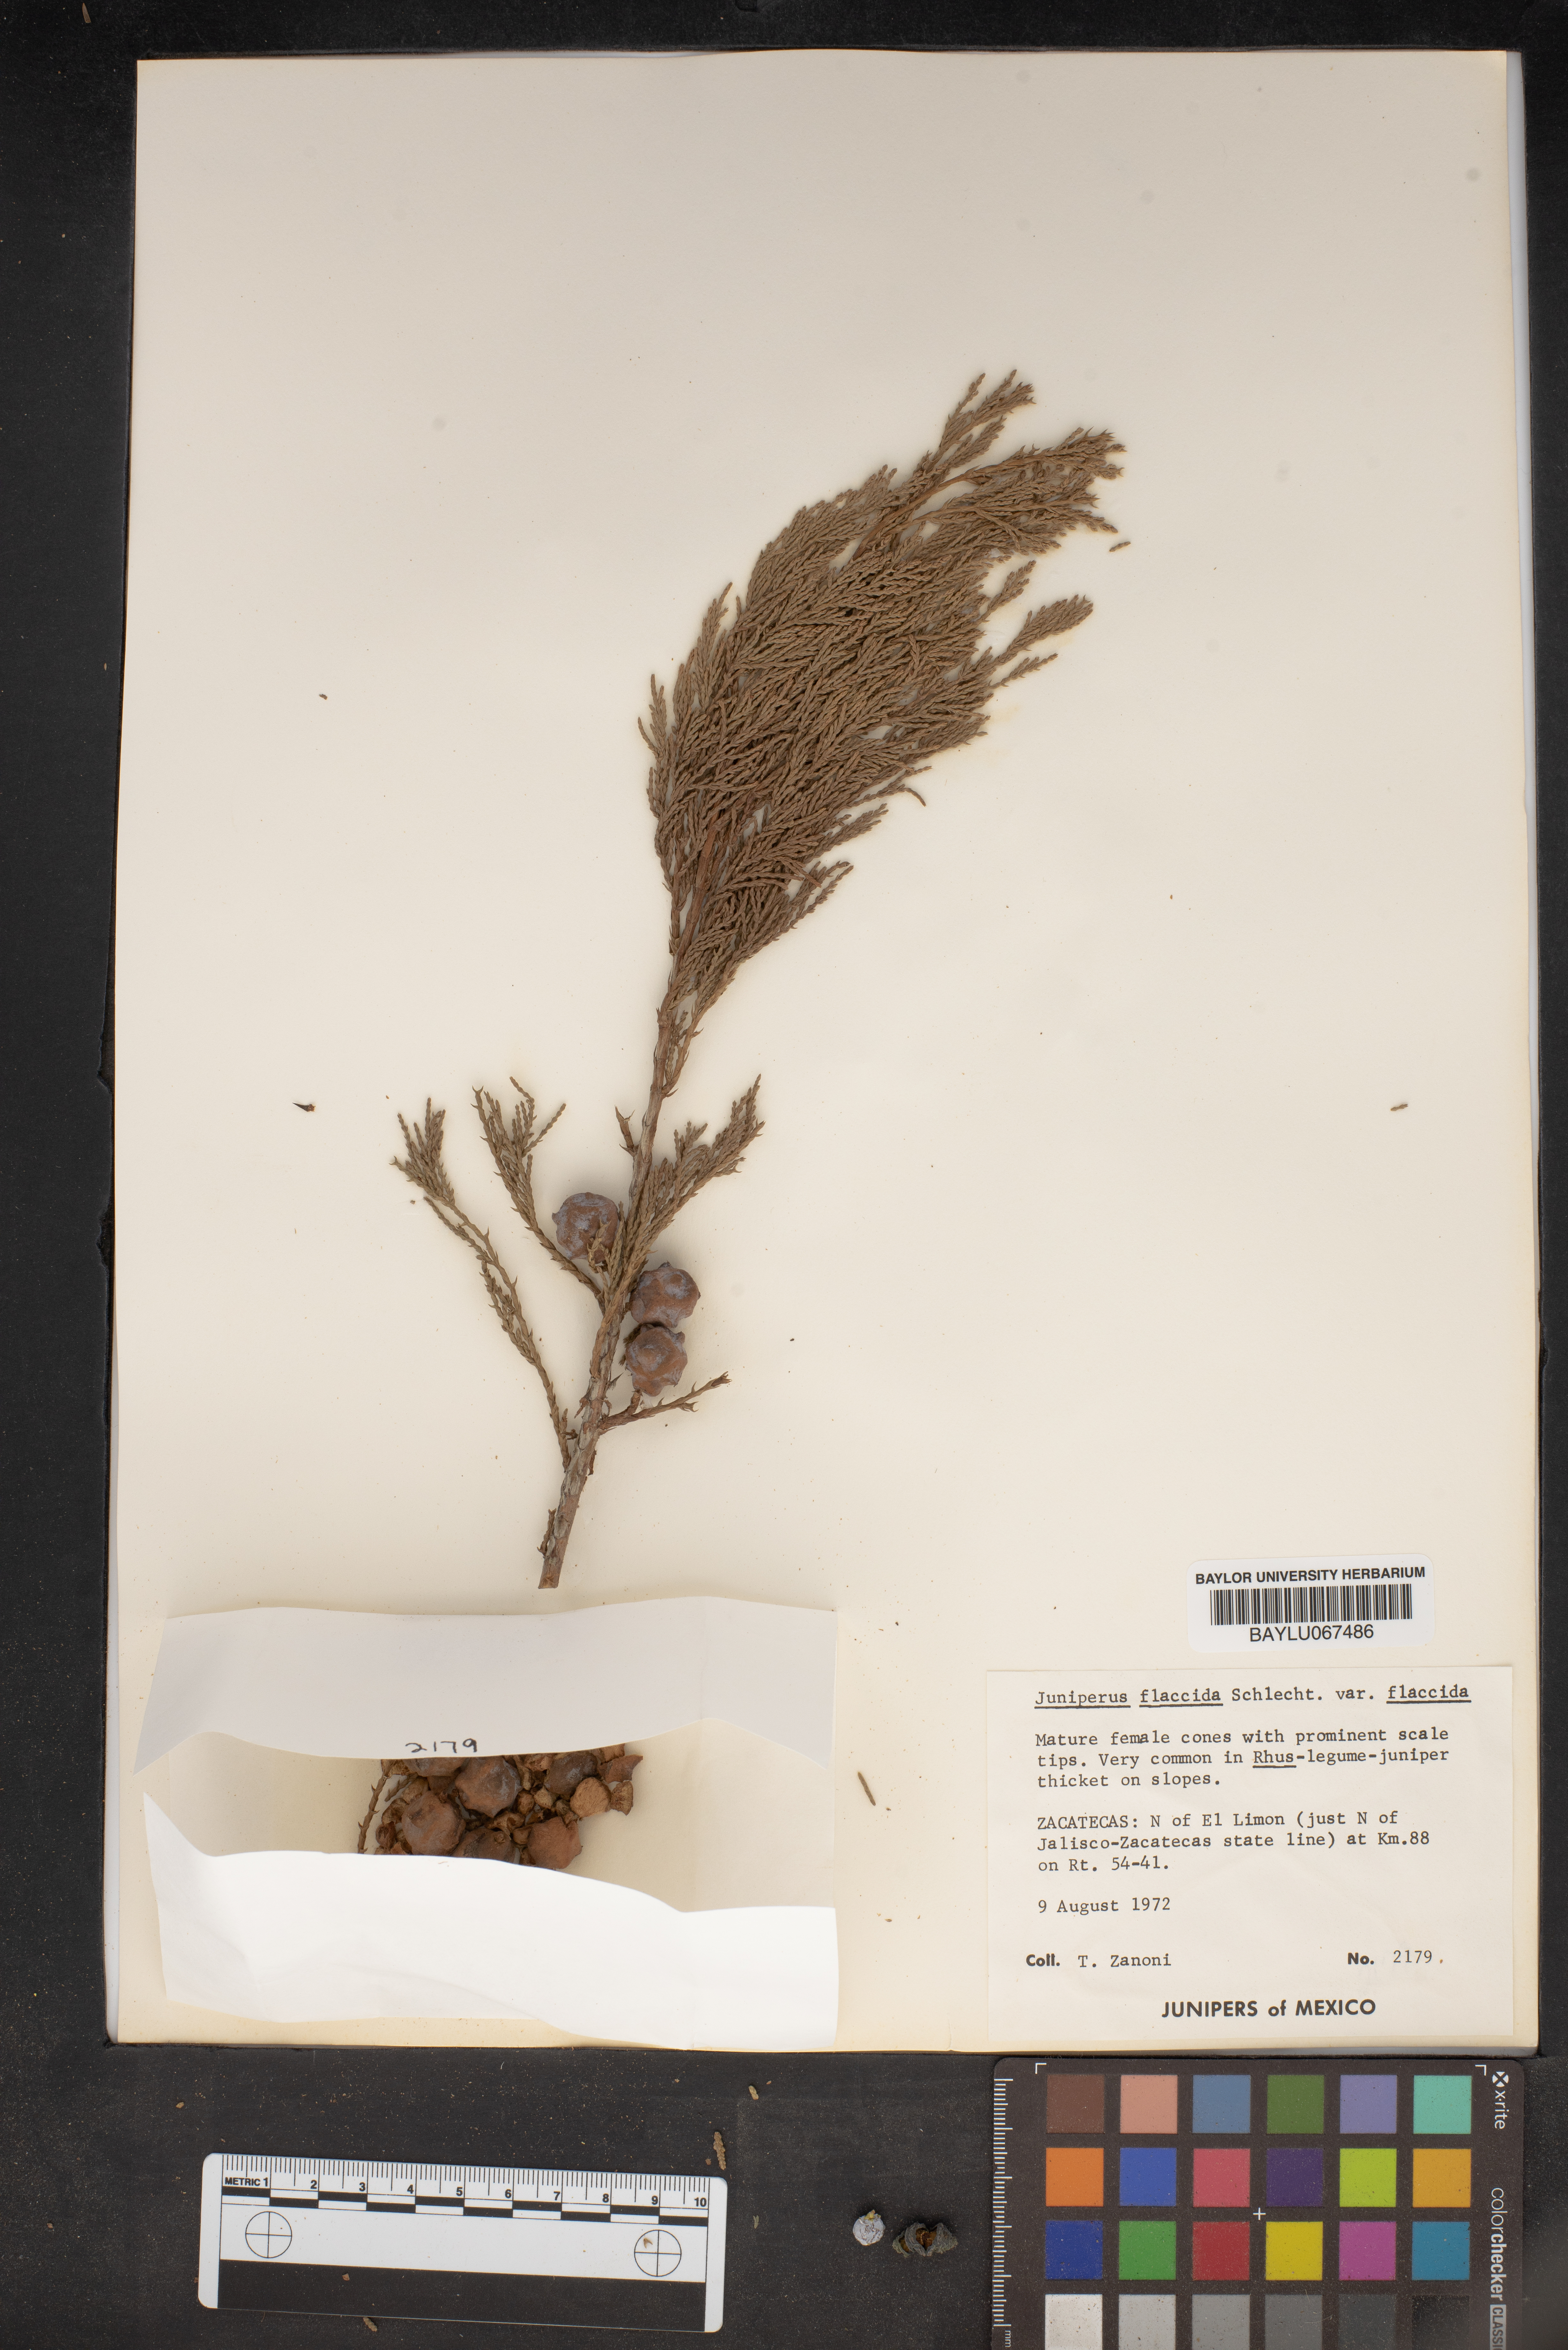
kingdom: Plantae
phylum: Tracheophyta
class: Pinopsida
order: Pinales
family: Cupressaceae
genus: Juniperus
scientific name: Juniperus flaccida
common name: Drooping juniper
